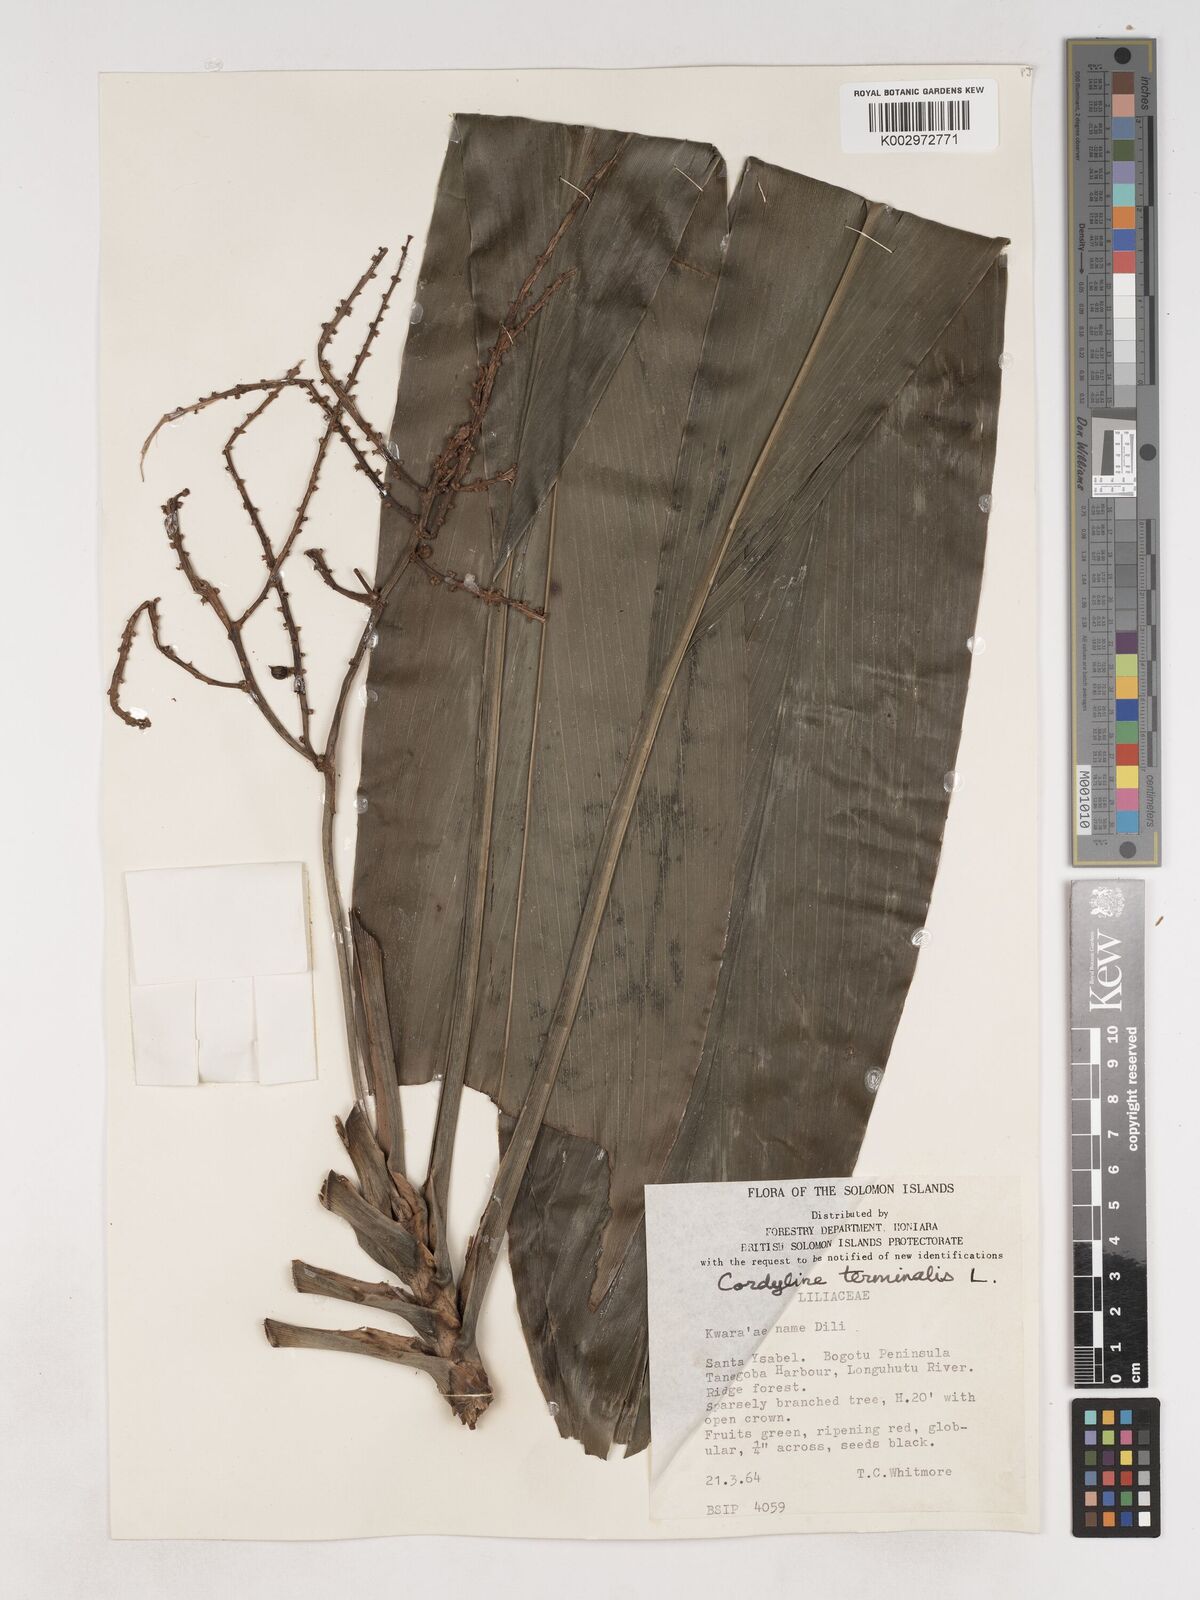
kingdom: Plantae
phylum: Tracheophyta
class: Liliopsida
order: Asparagales
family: Asparagaceae
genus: Cordyline
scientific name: Cordyline fruticosa
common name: Good-luck-plant
